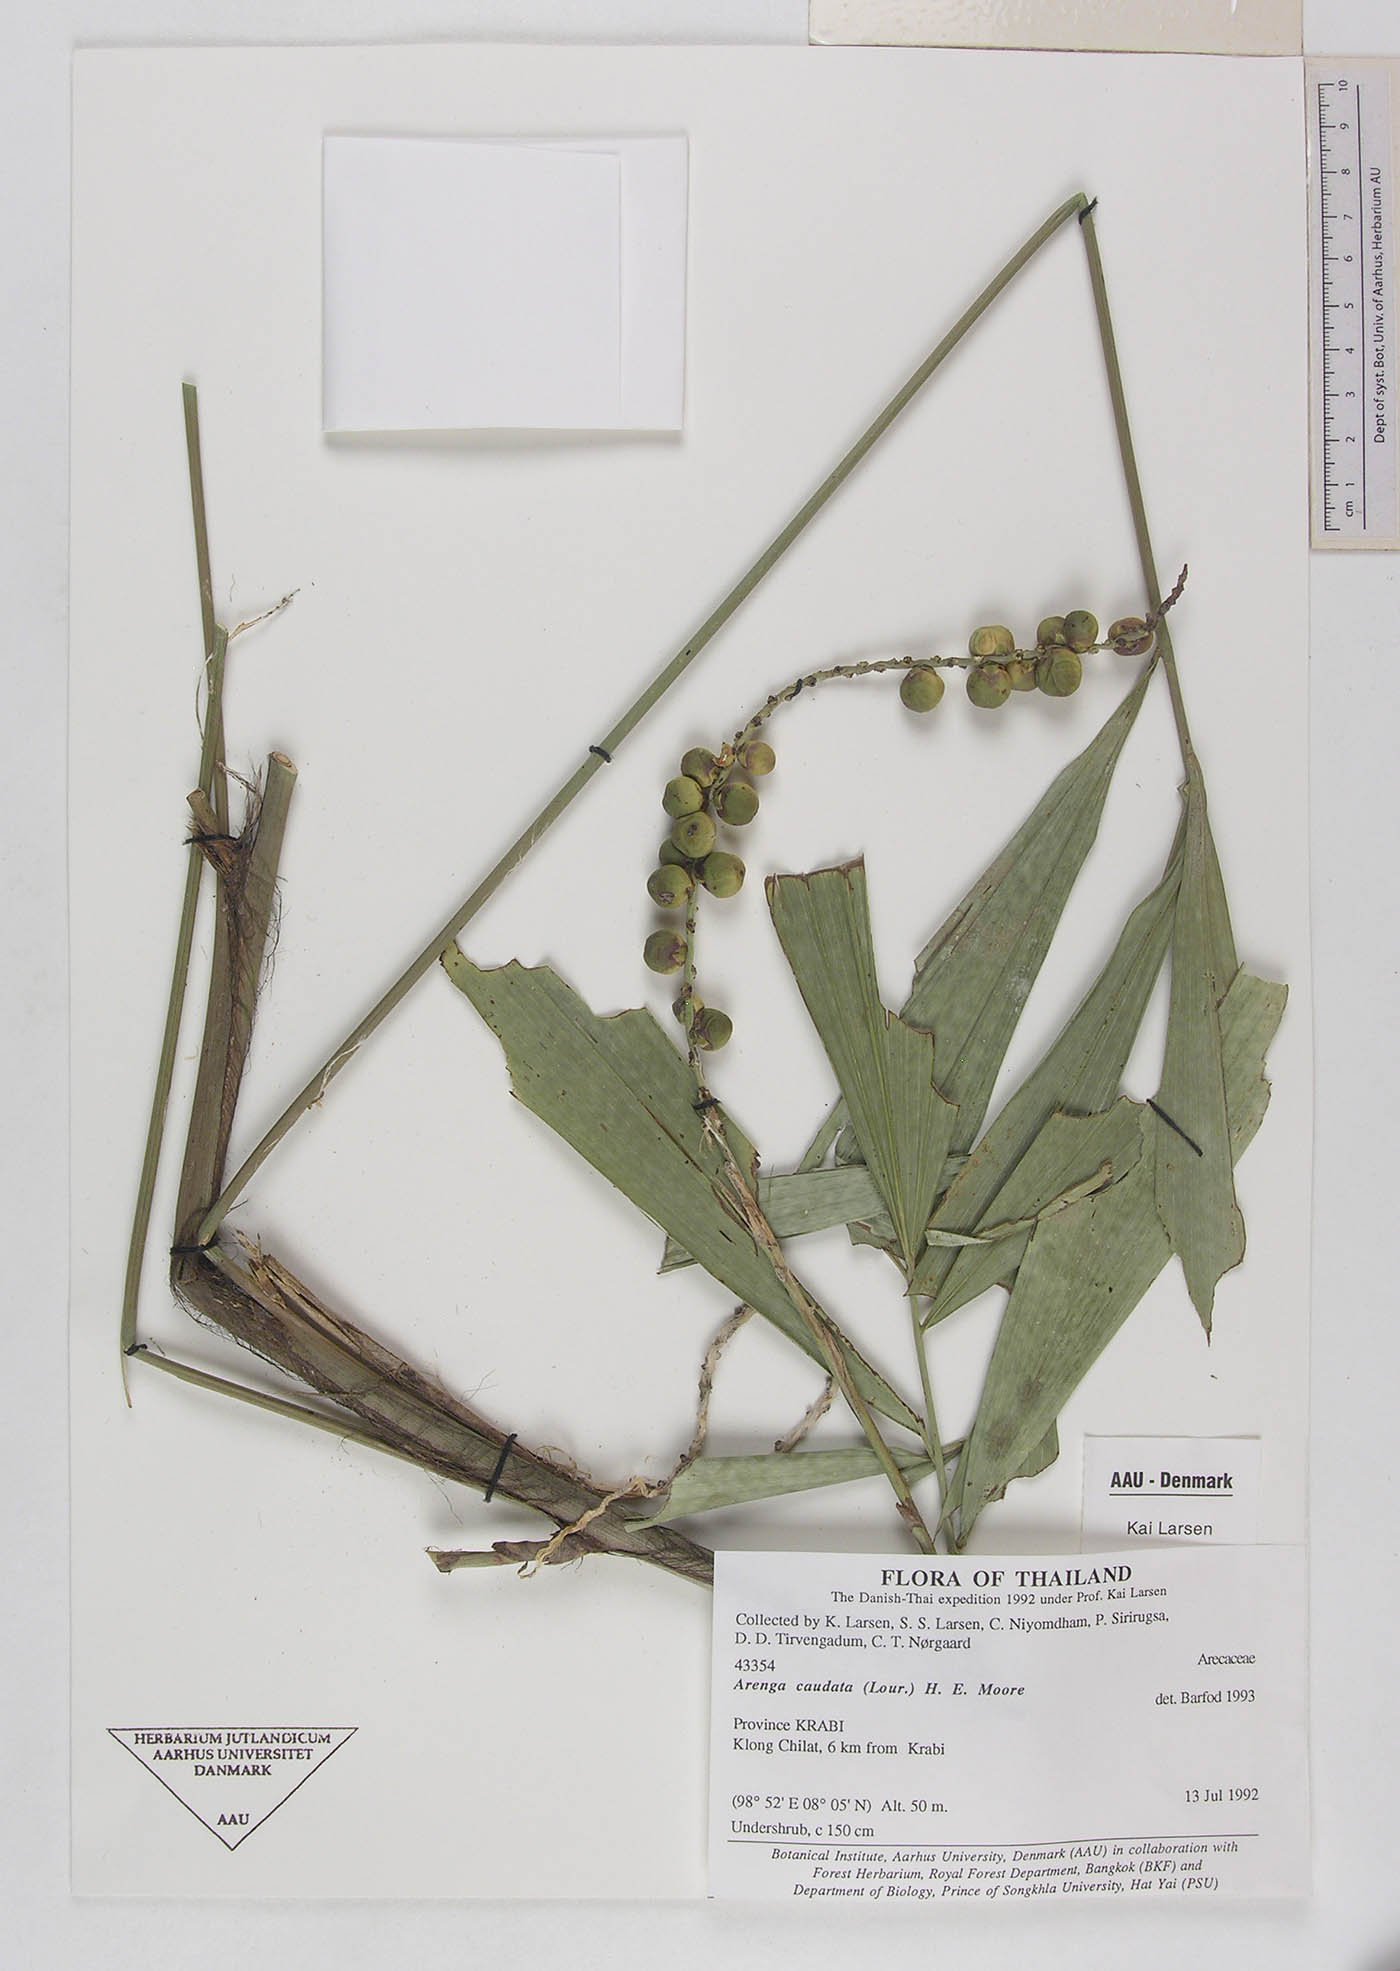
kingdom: Plantae
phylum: Tracheophyta
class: Liliopsida
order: Arecales
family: Arecaceae
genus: Arenga
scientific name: Arenga caudata
